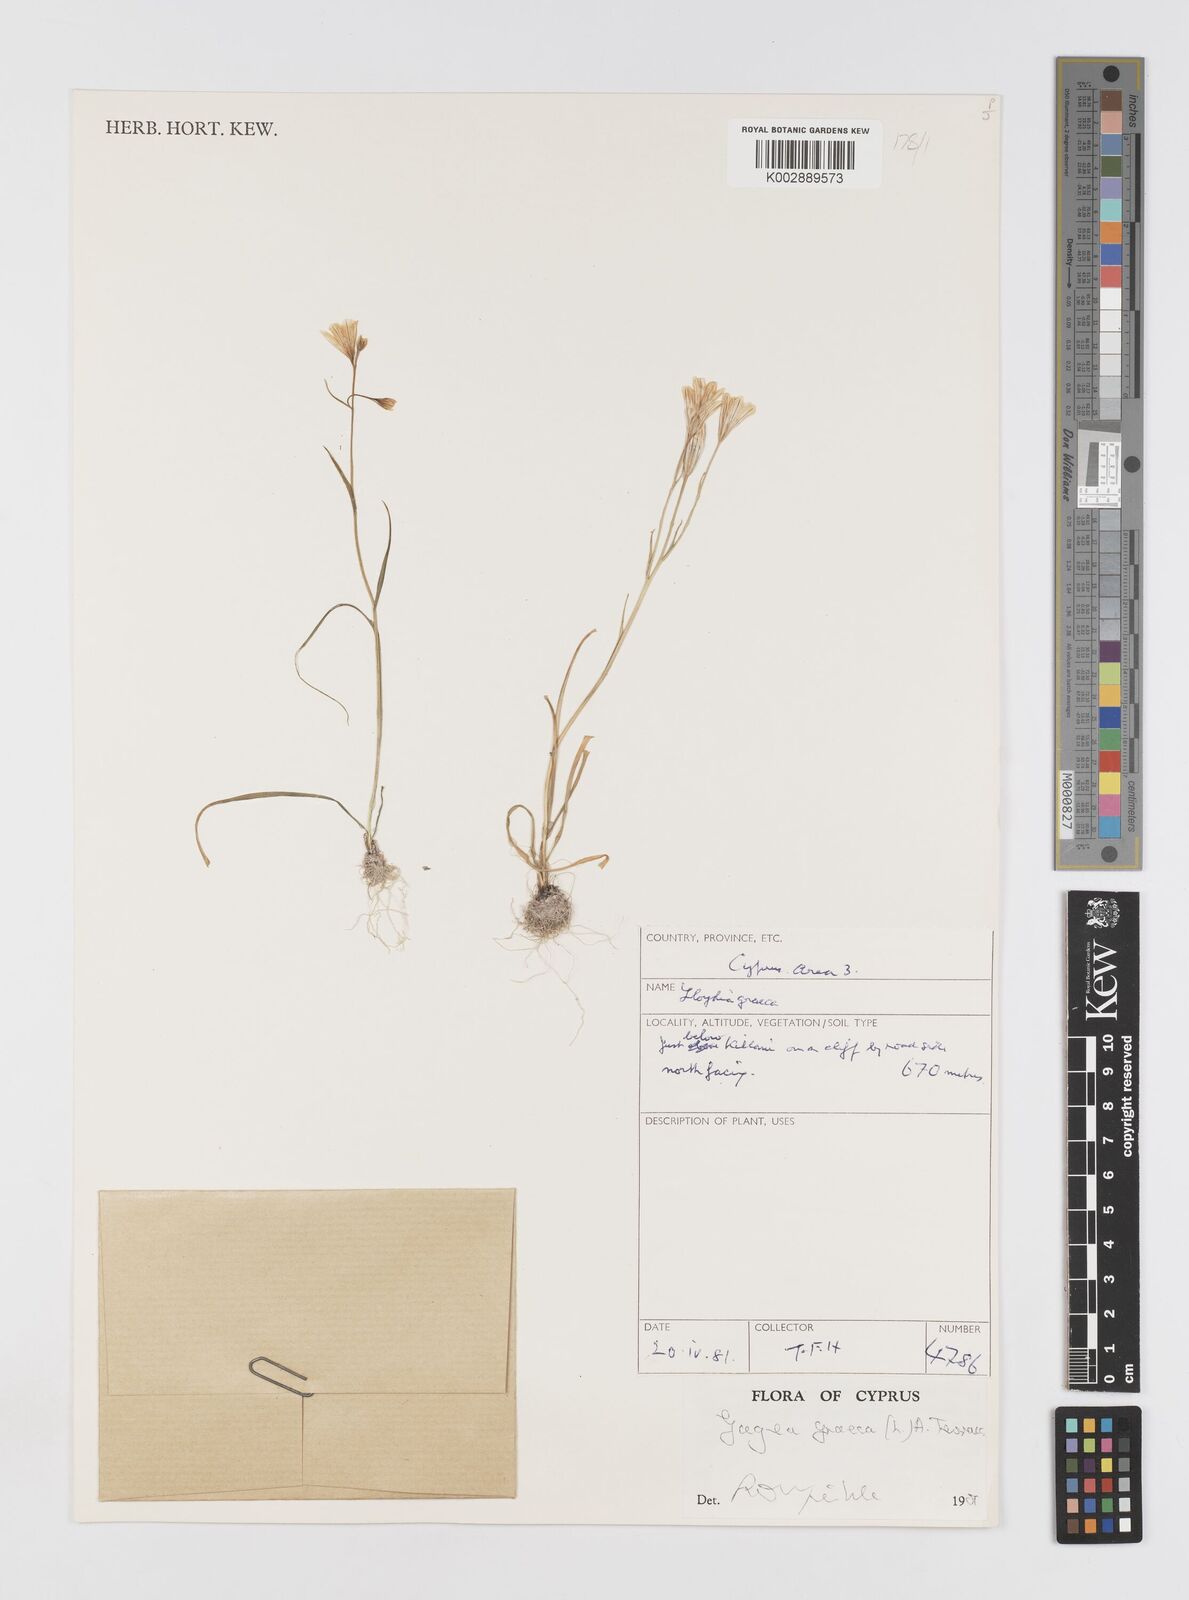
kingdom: Plantae
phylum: Tracheophyta
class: Liliopsida
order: Liliales
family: Liliaceae
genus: Gagea
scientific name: Gagea graeca
